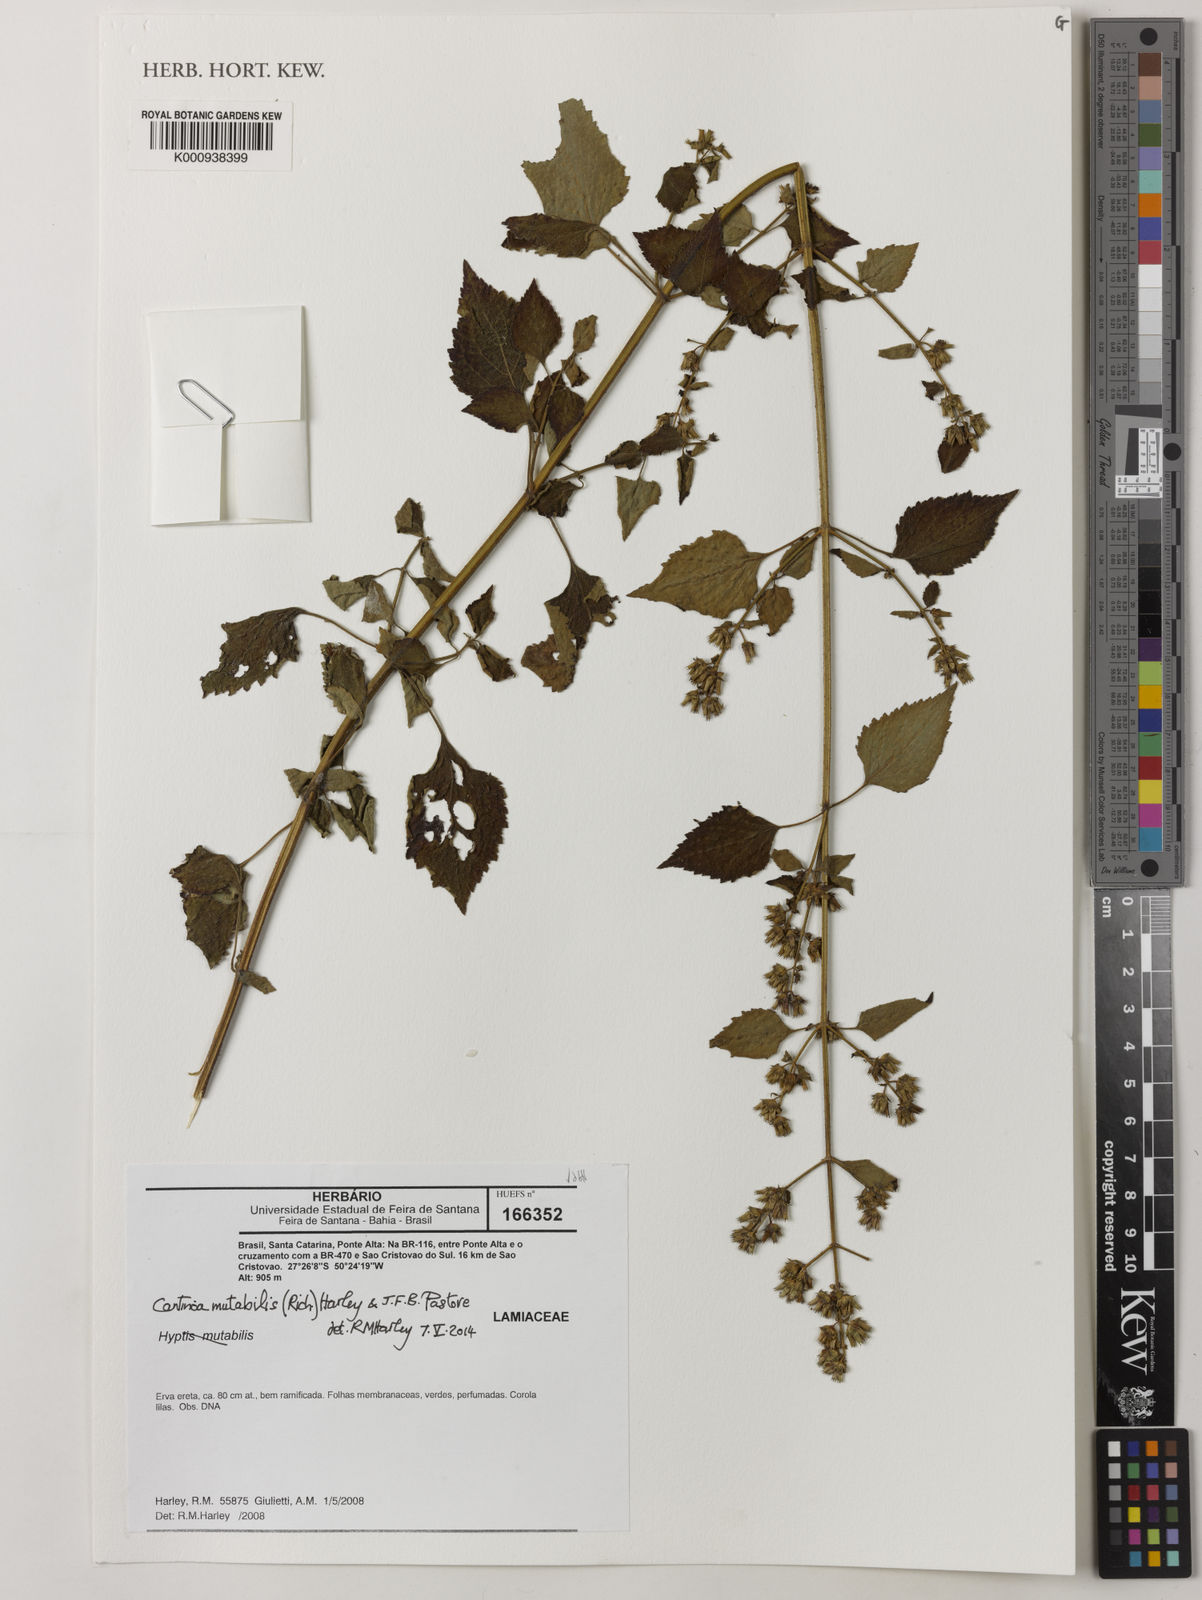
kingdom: Plantae
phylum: Tracheophyta
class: Magnoliopsida
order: Lamiales
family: Lamiaceae
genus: Cantinoa
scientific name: Cantinoa mutabilis
